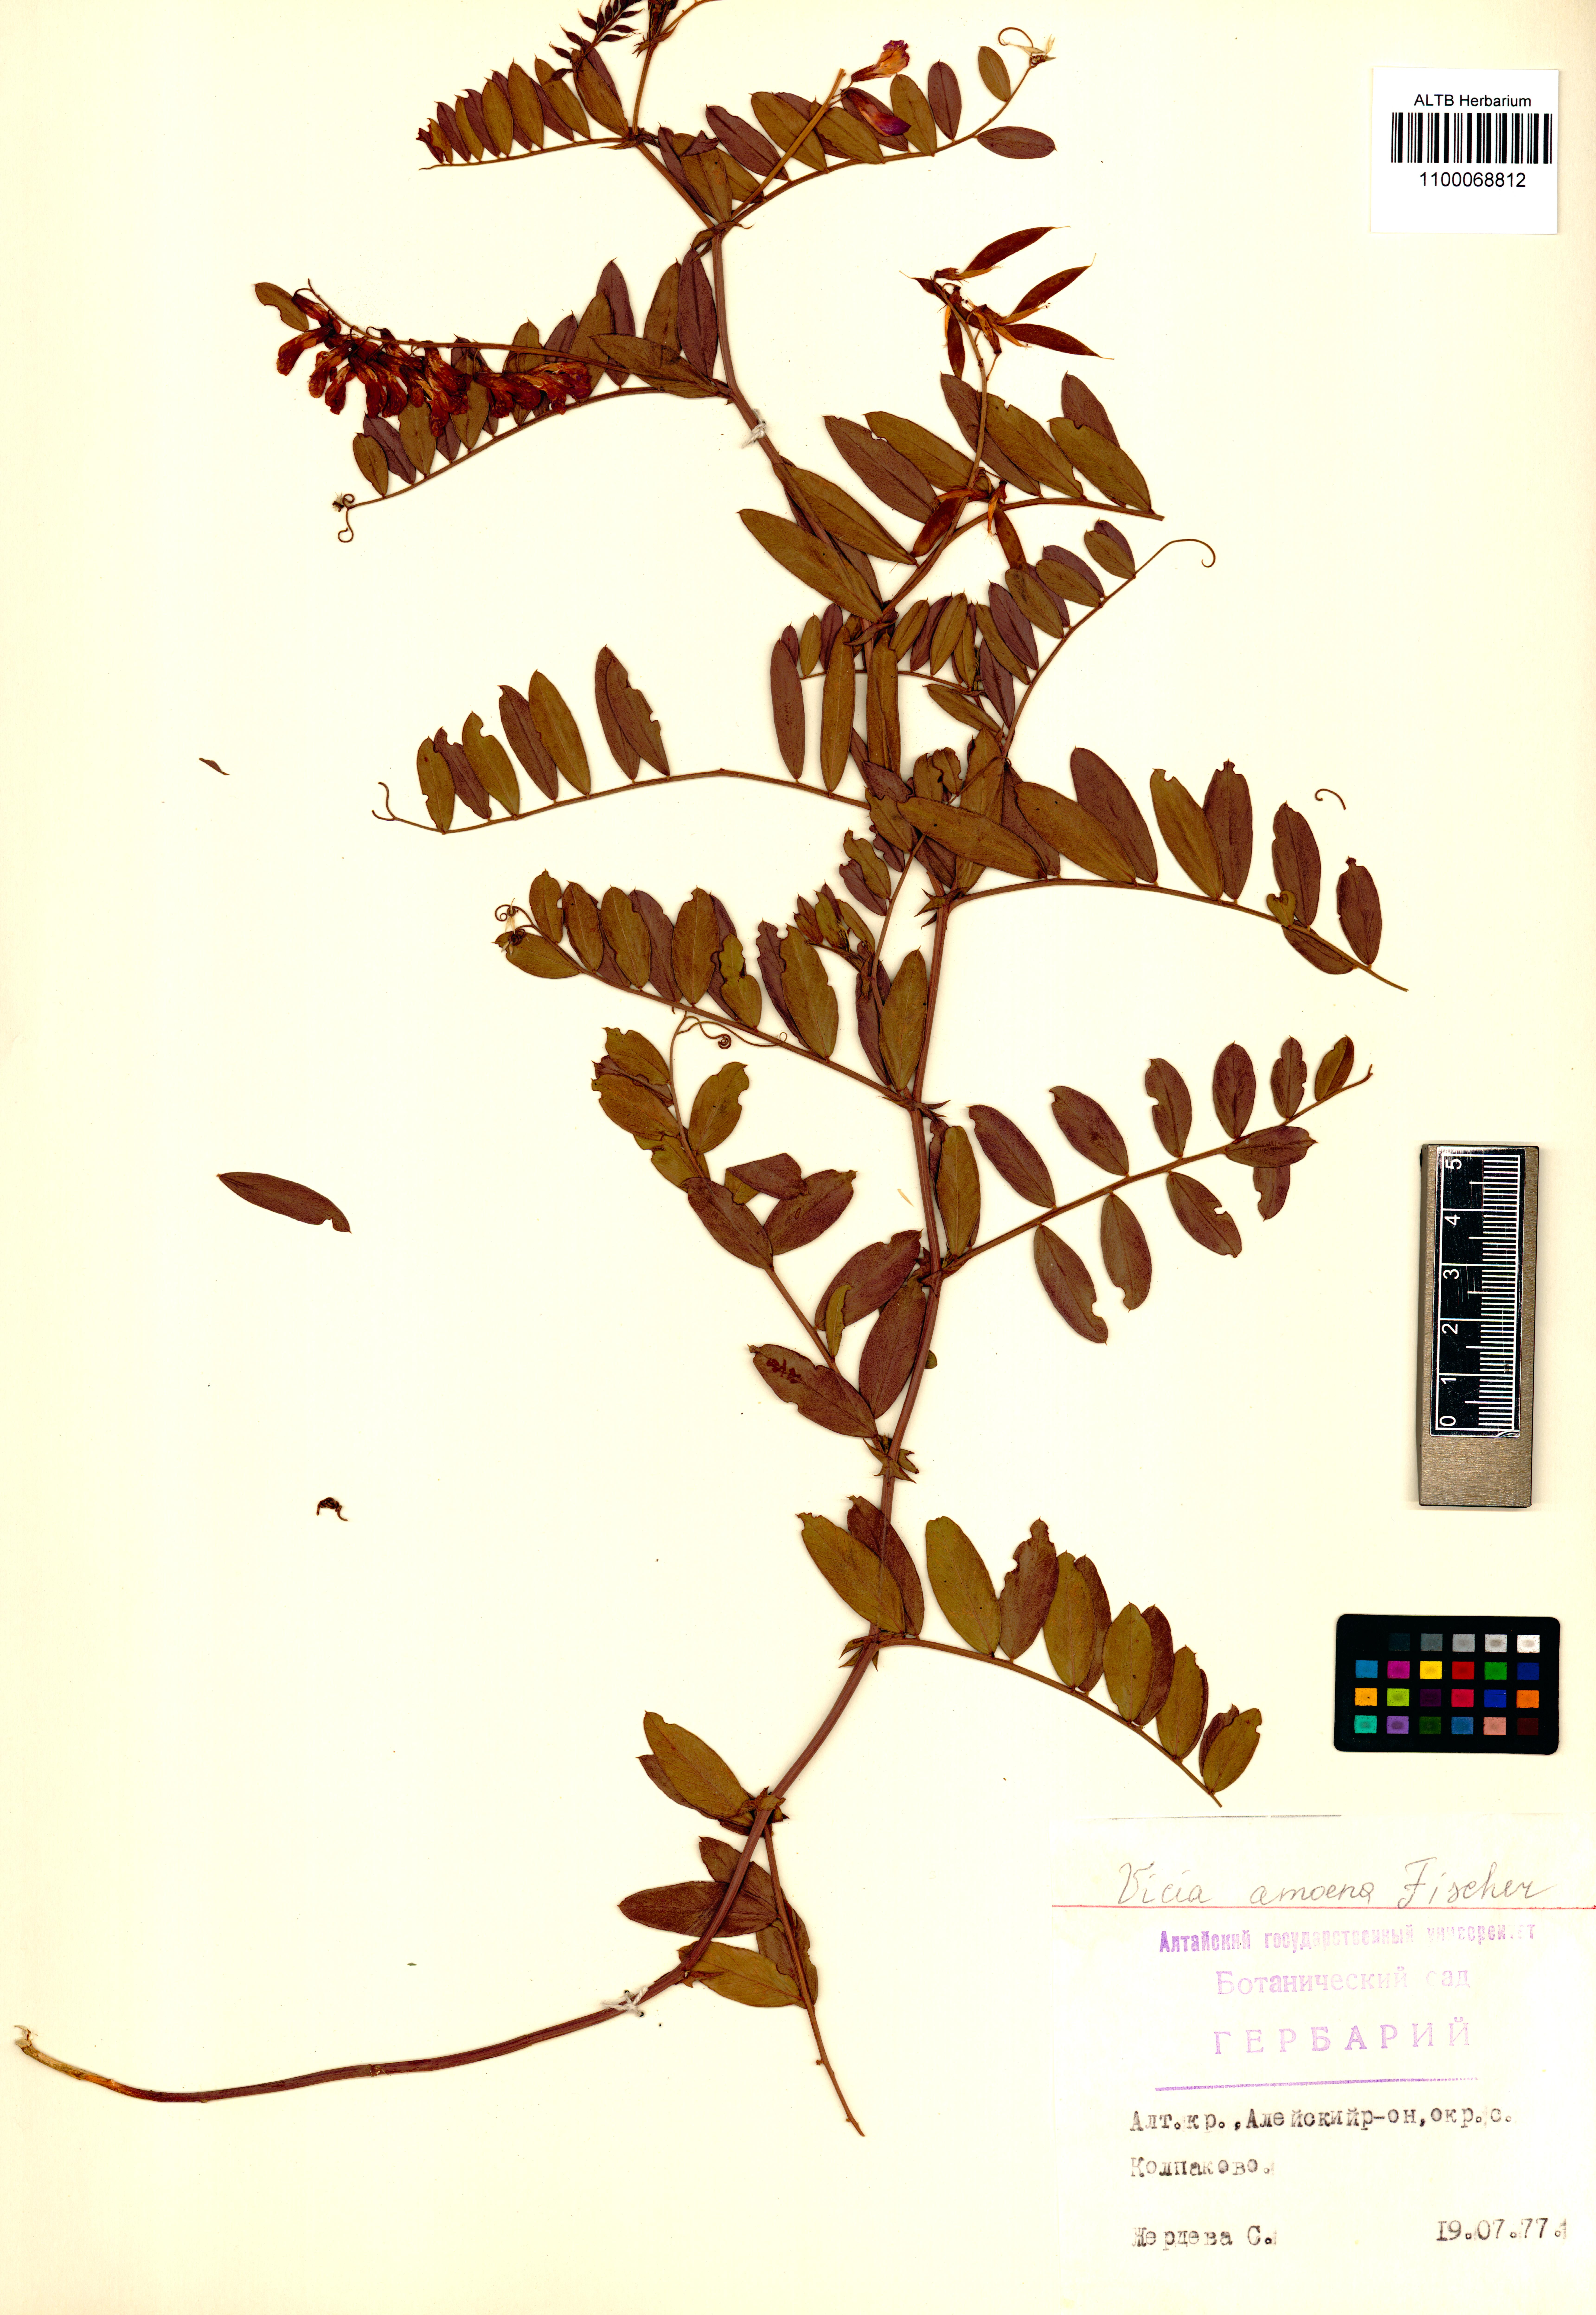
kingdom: Plantae
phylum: Tracheophyta
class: Magnoliopsida
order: Fabales
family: Fabaceae
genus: Vicia
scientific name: Vicia amoena
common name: Cheder ebs
